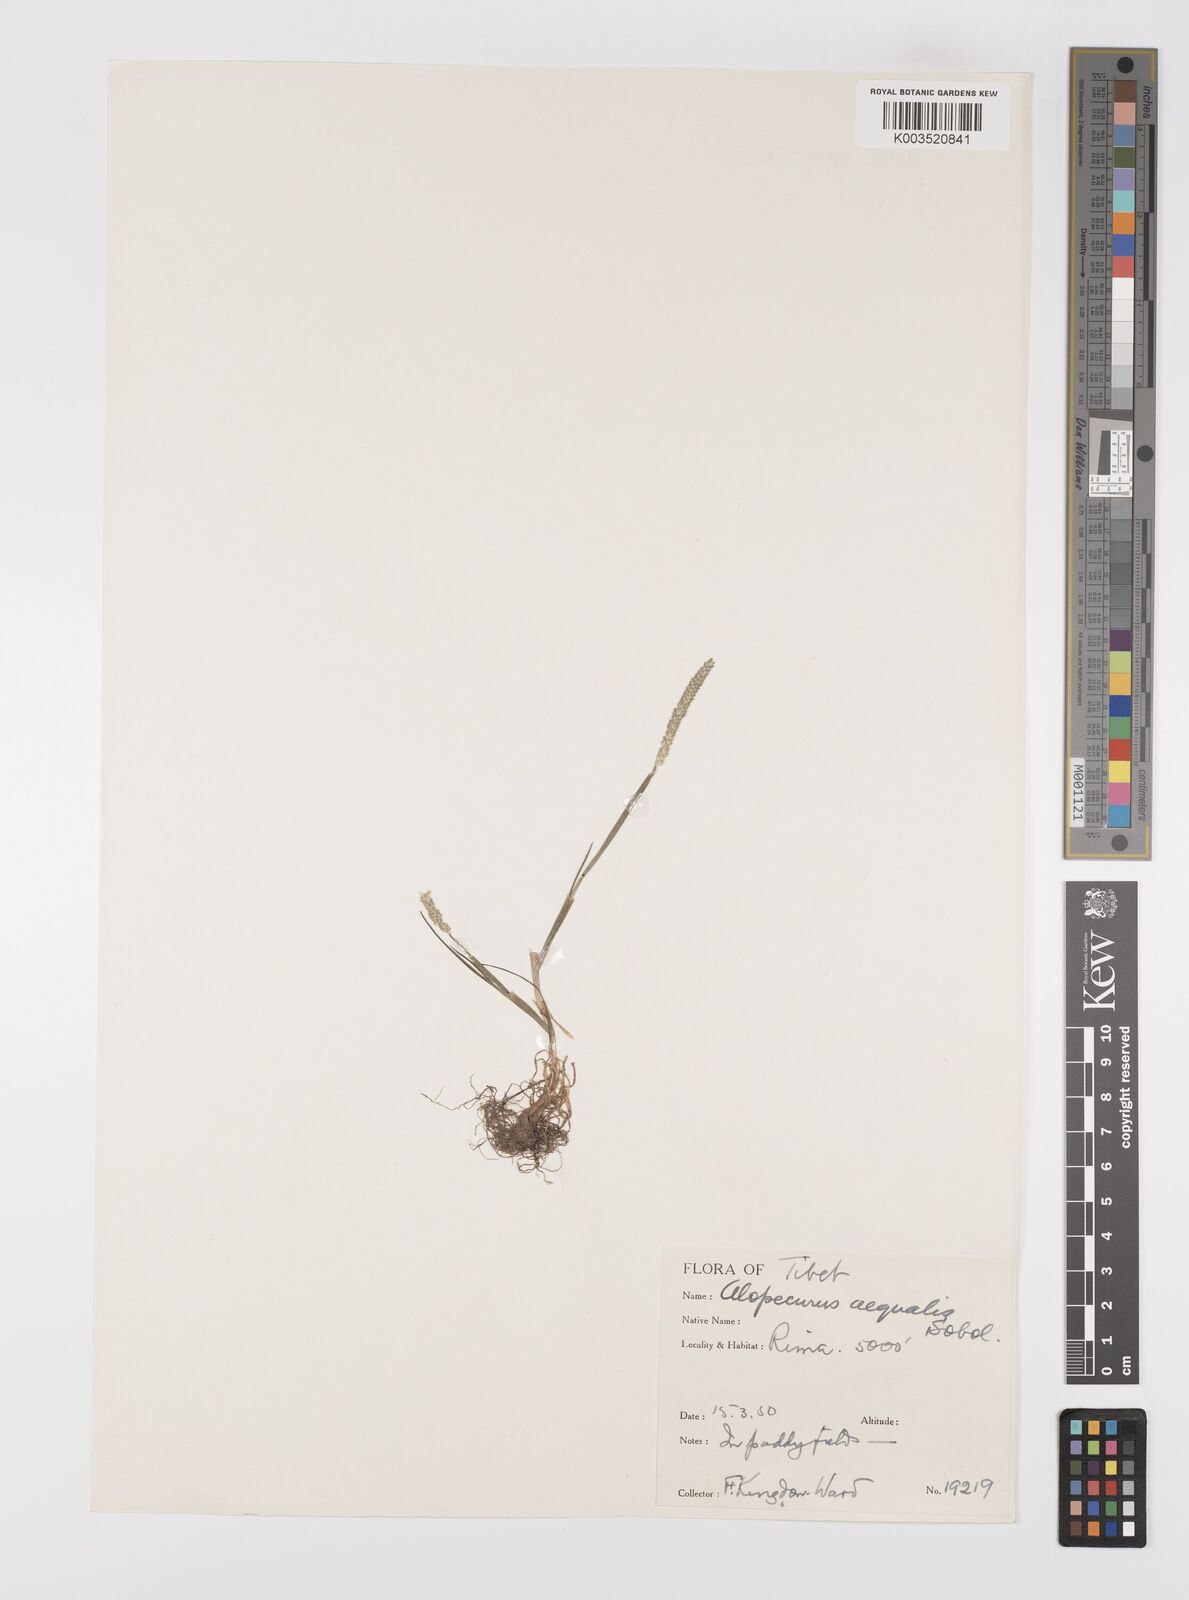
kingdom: Plantae
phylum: Tracheophyta
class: Liliopsida
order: Poales
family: Poaceae
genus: Alopecurus
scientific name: Alopecurus aequalis
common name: Orange foxtail
